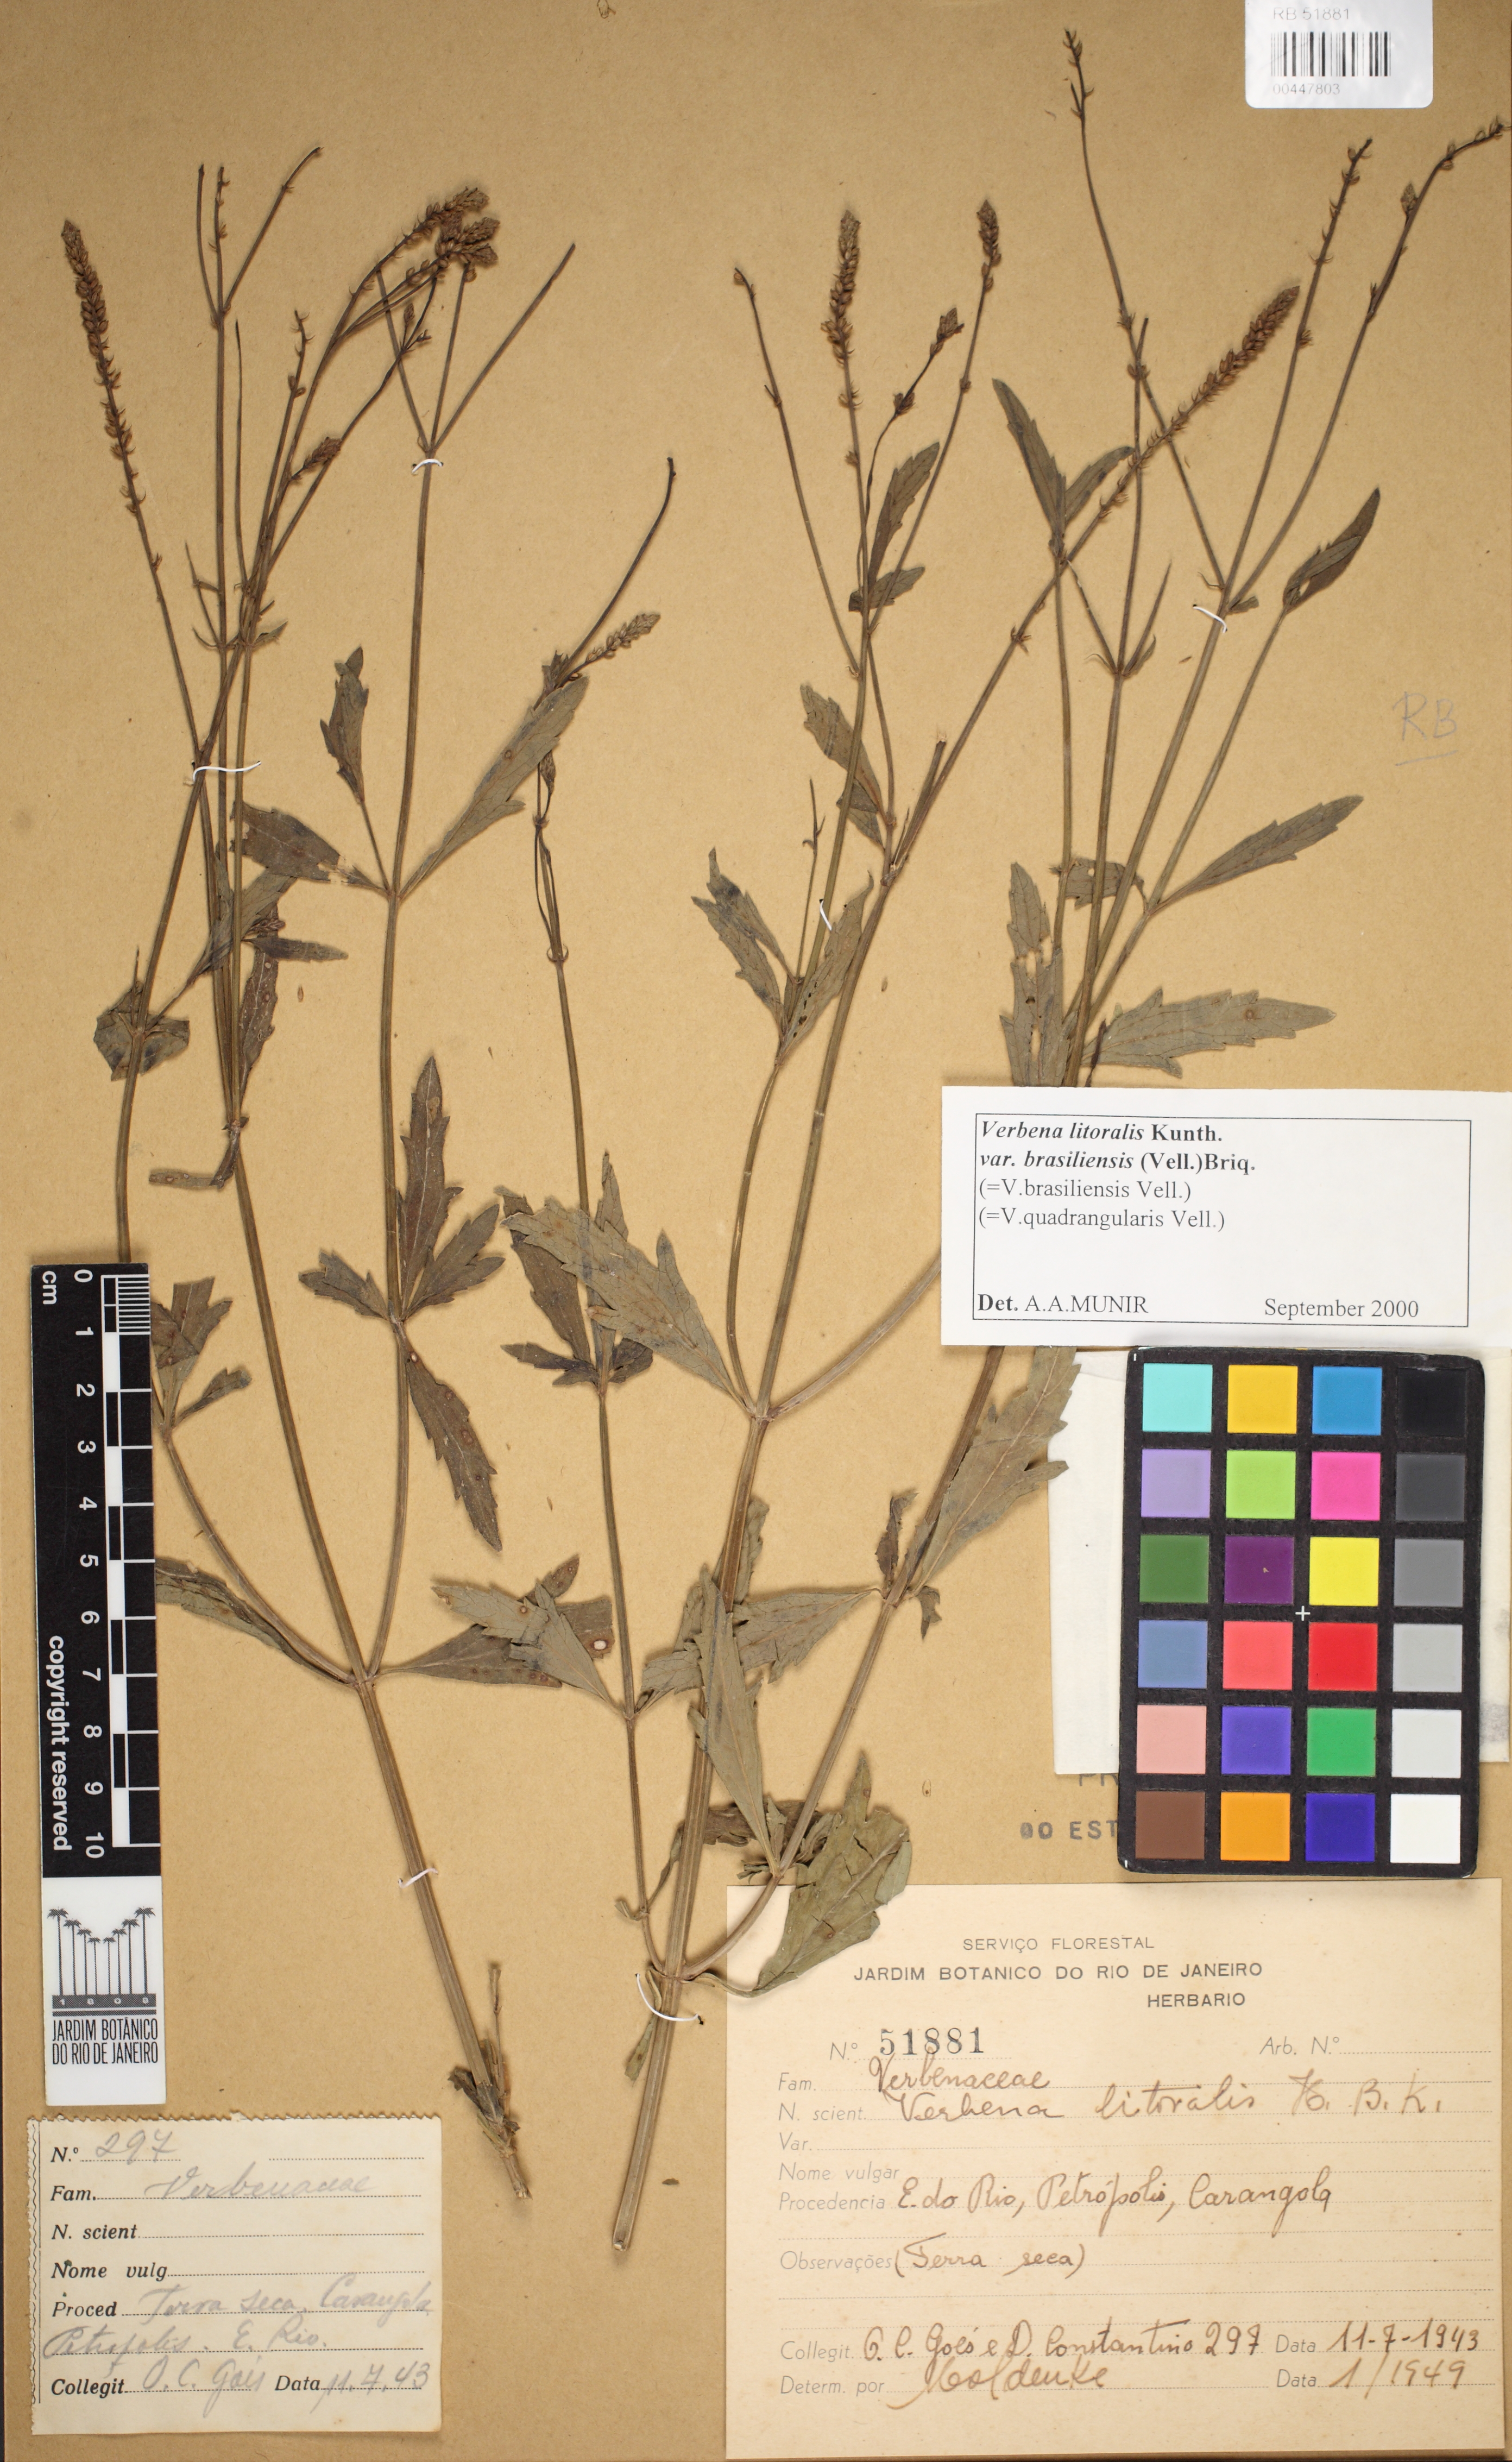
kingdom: Plantae
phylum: Tracheophyta
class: Magnoliopsida
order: Lamiales
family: Verbenaceae
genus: Verbena
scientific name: Verbena litoralis
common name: Seashore vervain
